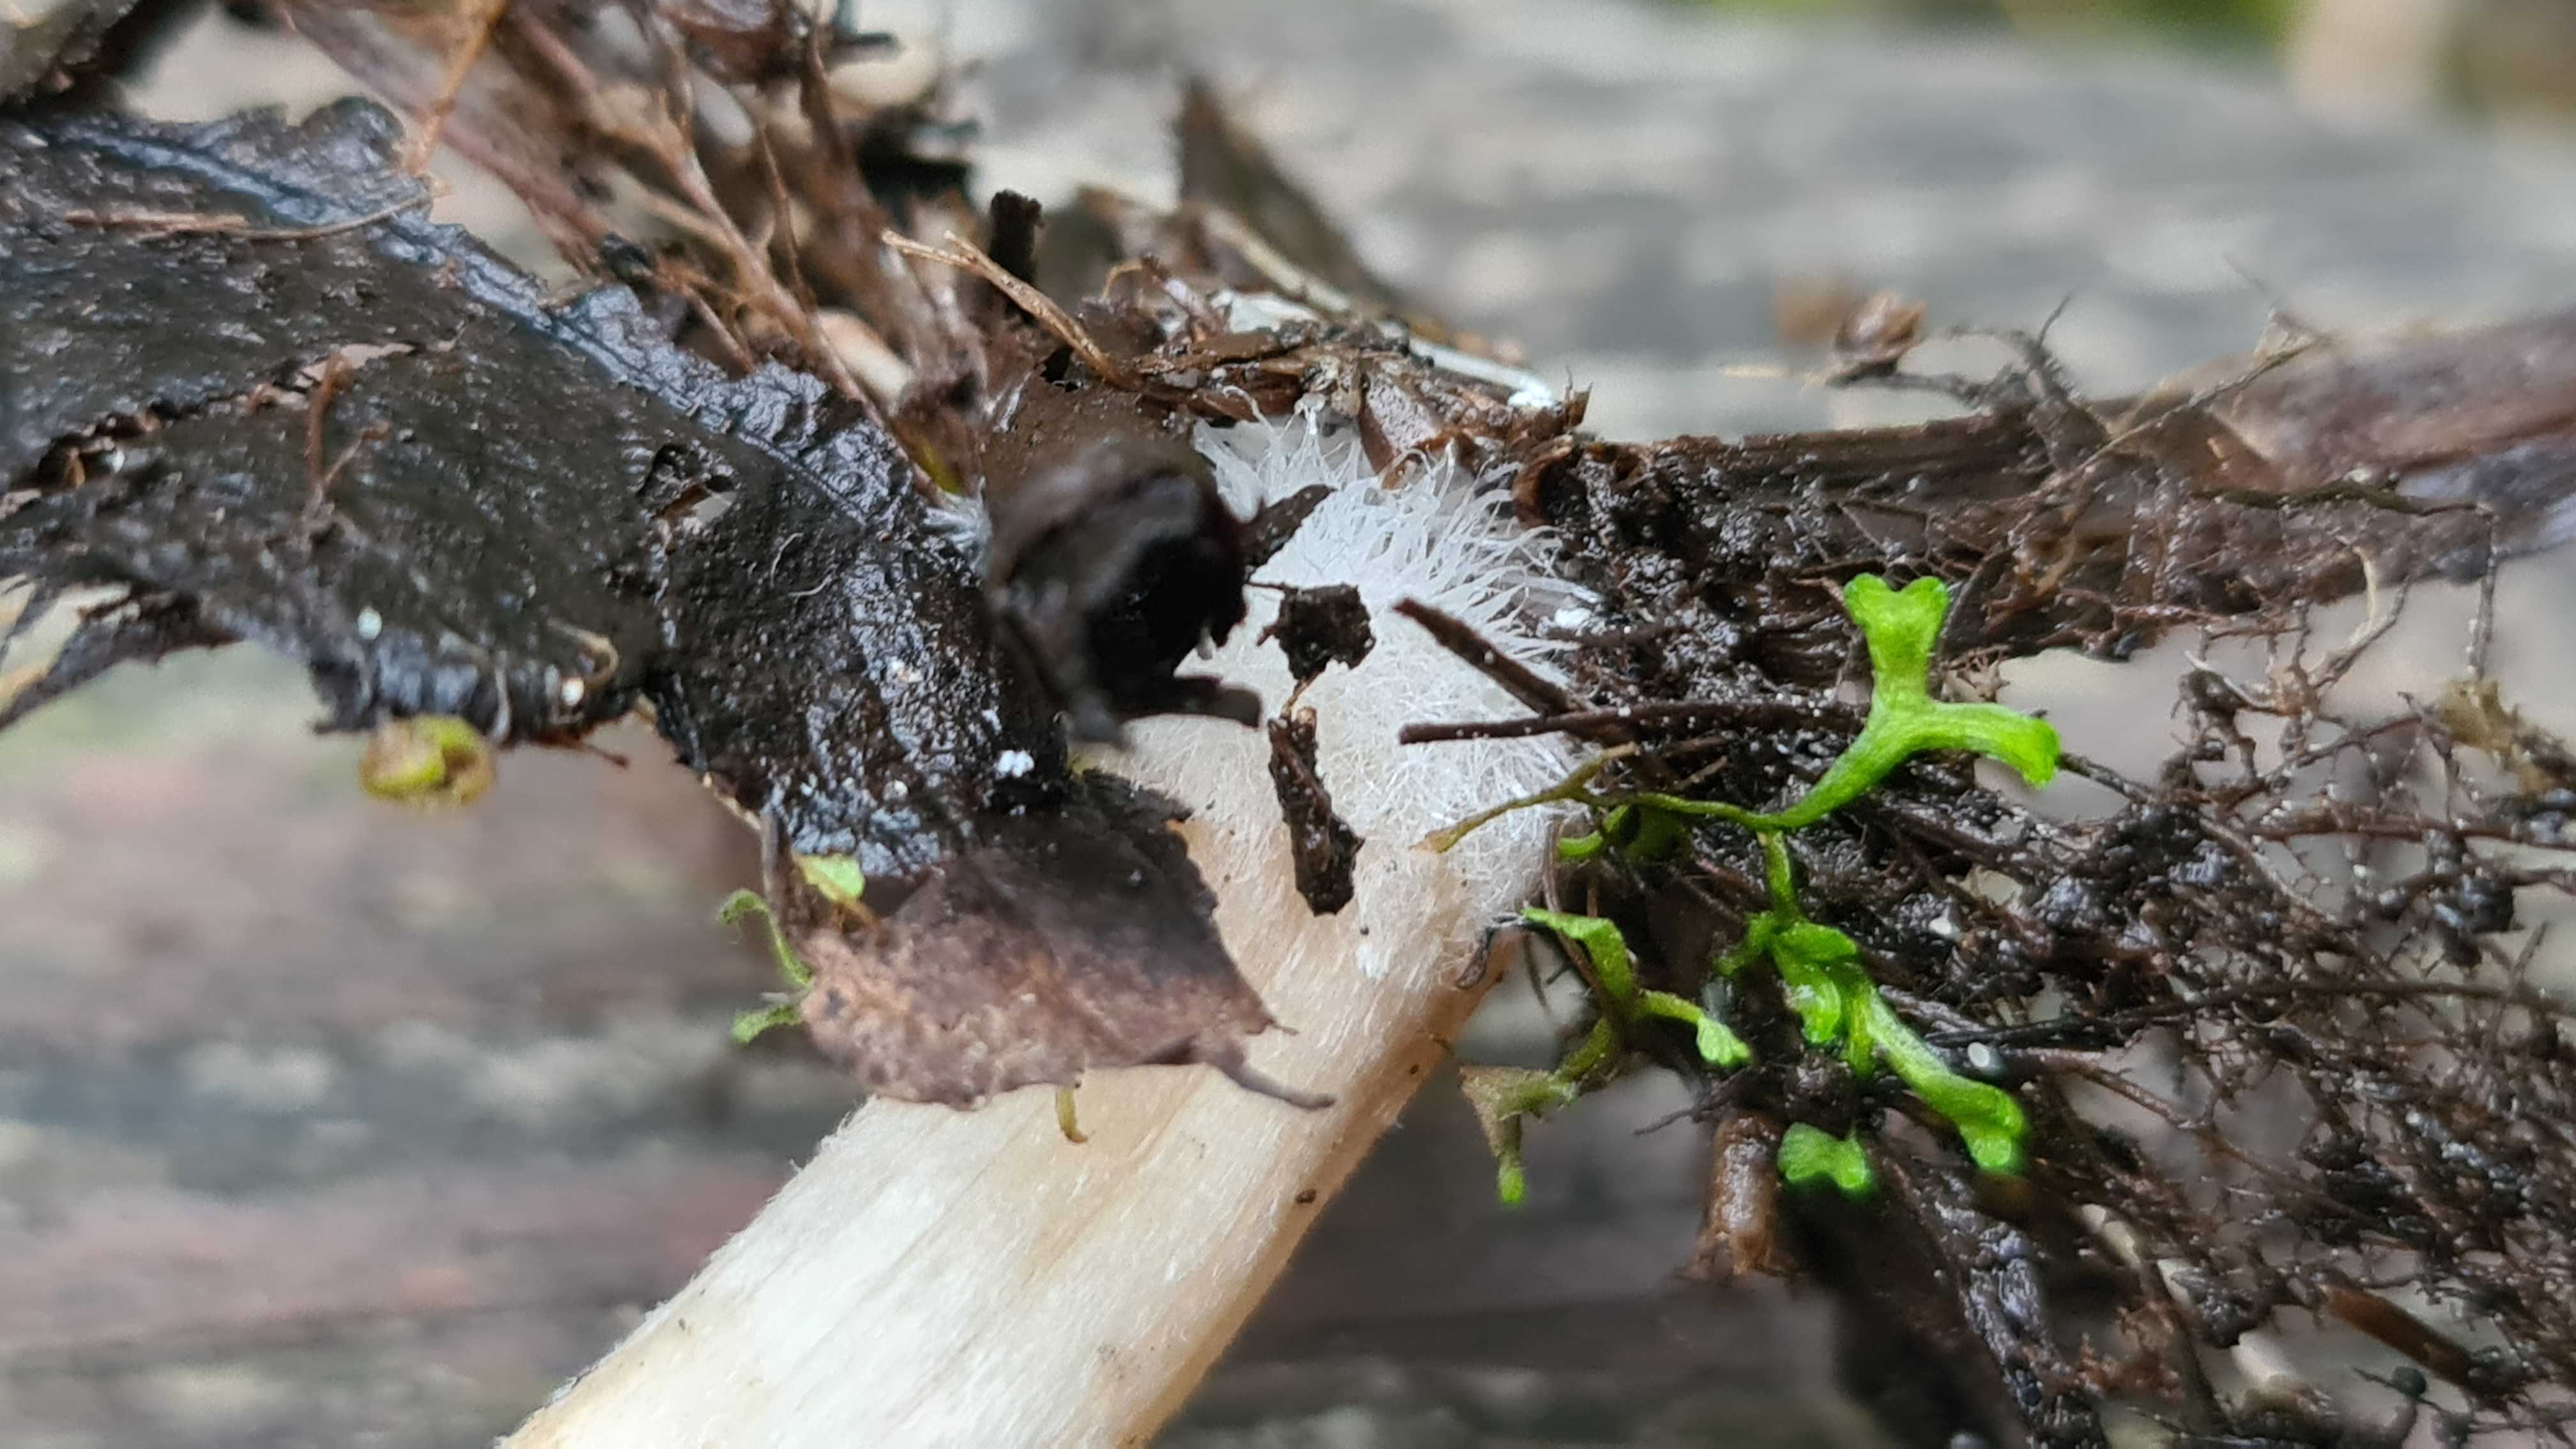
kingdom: Fungi
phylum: Basidiomycota
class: Agaricomycetes
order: Agaricales
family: Psathyrellaceae
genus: Candolleomyces
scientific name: Candolleomyces candolleanus
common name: Candolles mørkhat
